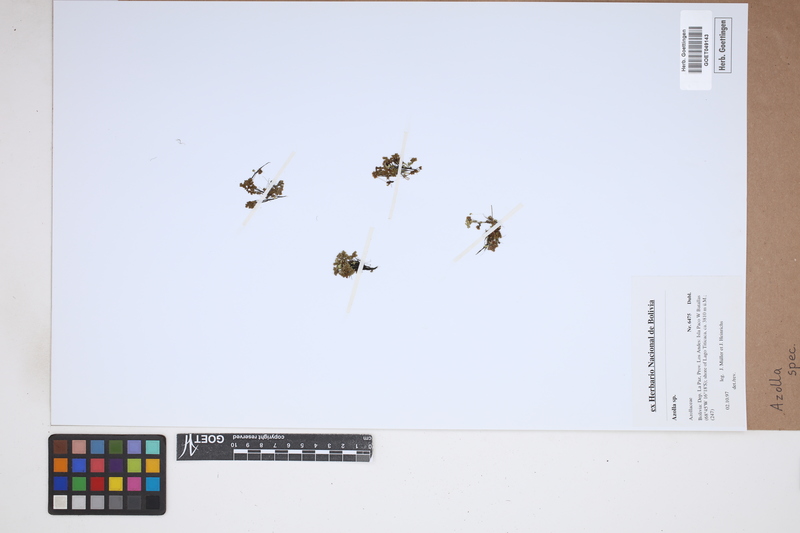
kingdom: Plantae
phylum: Tracheophyta
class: Polypodiopsida
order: Salviniales
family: Salviniaceae
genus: Azolla
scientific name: Azolla
